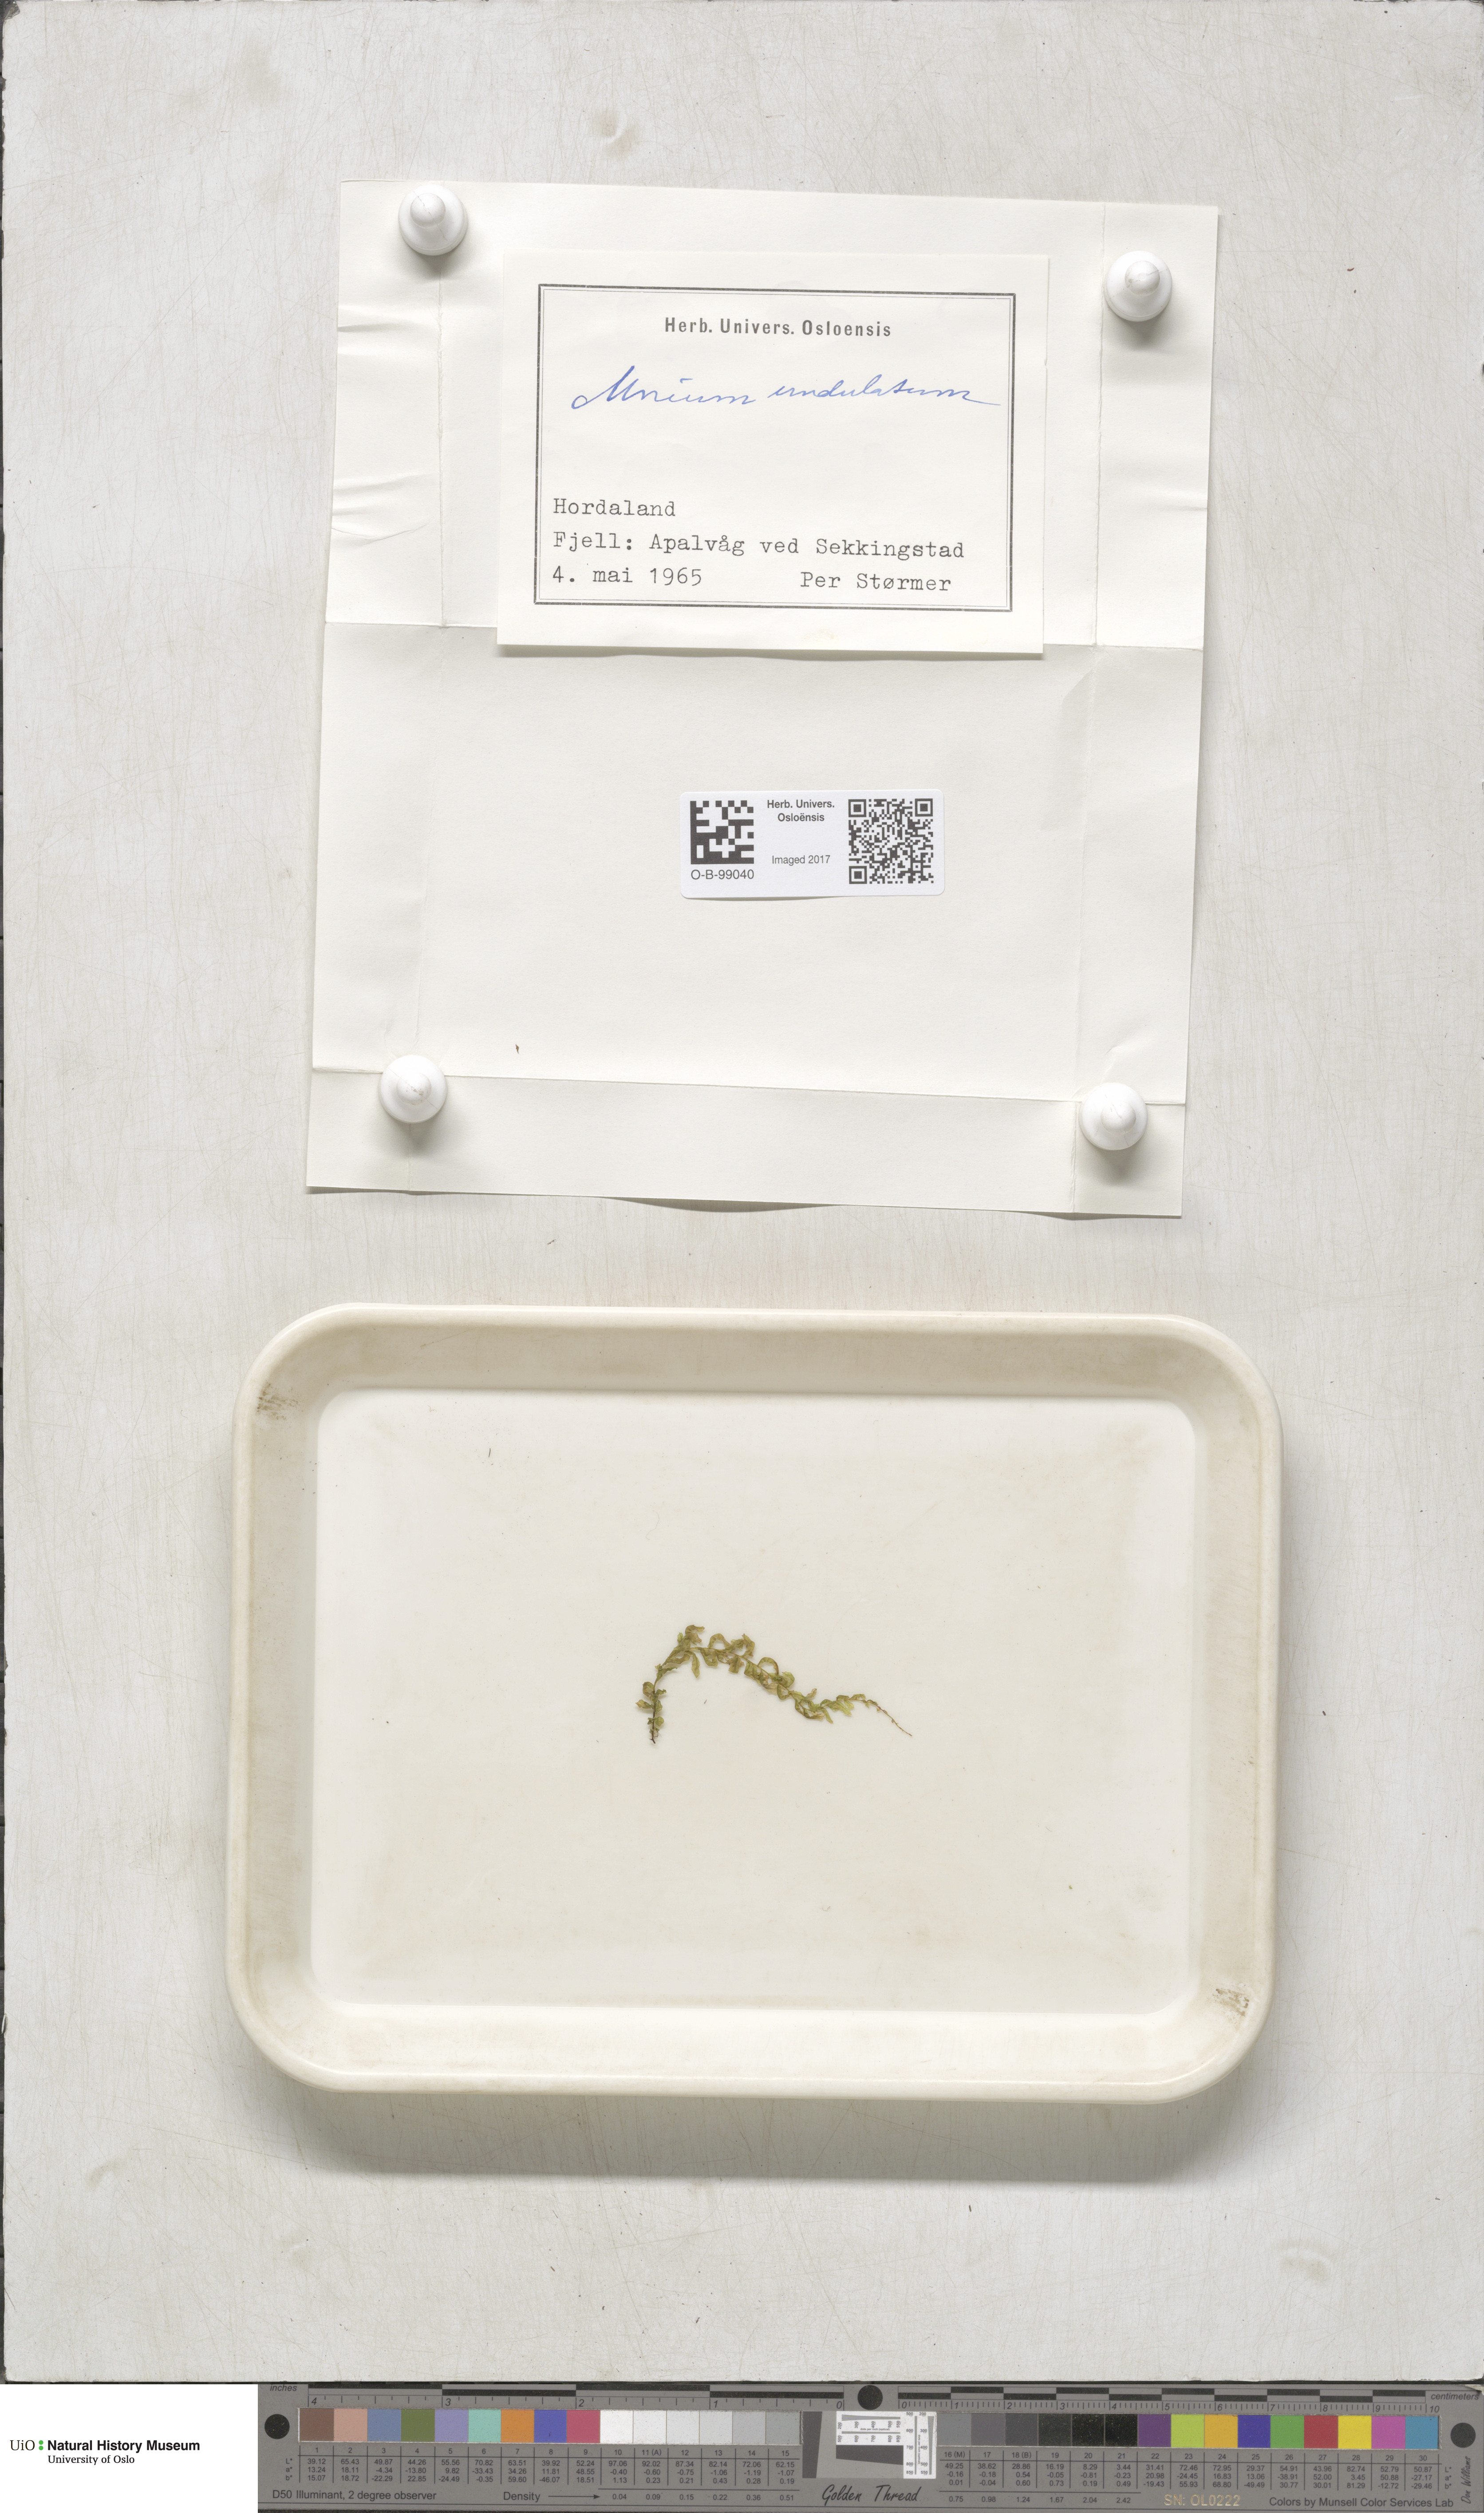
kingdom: Plantae
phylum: Bryophyta
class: Bryopsida
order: Bryales
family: Mniaceae
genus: Plagiomnium
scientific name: Plagiomnium undulatum
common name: Hart's-tongue thyme-moss
